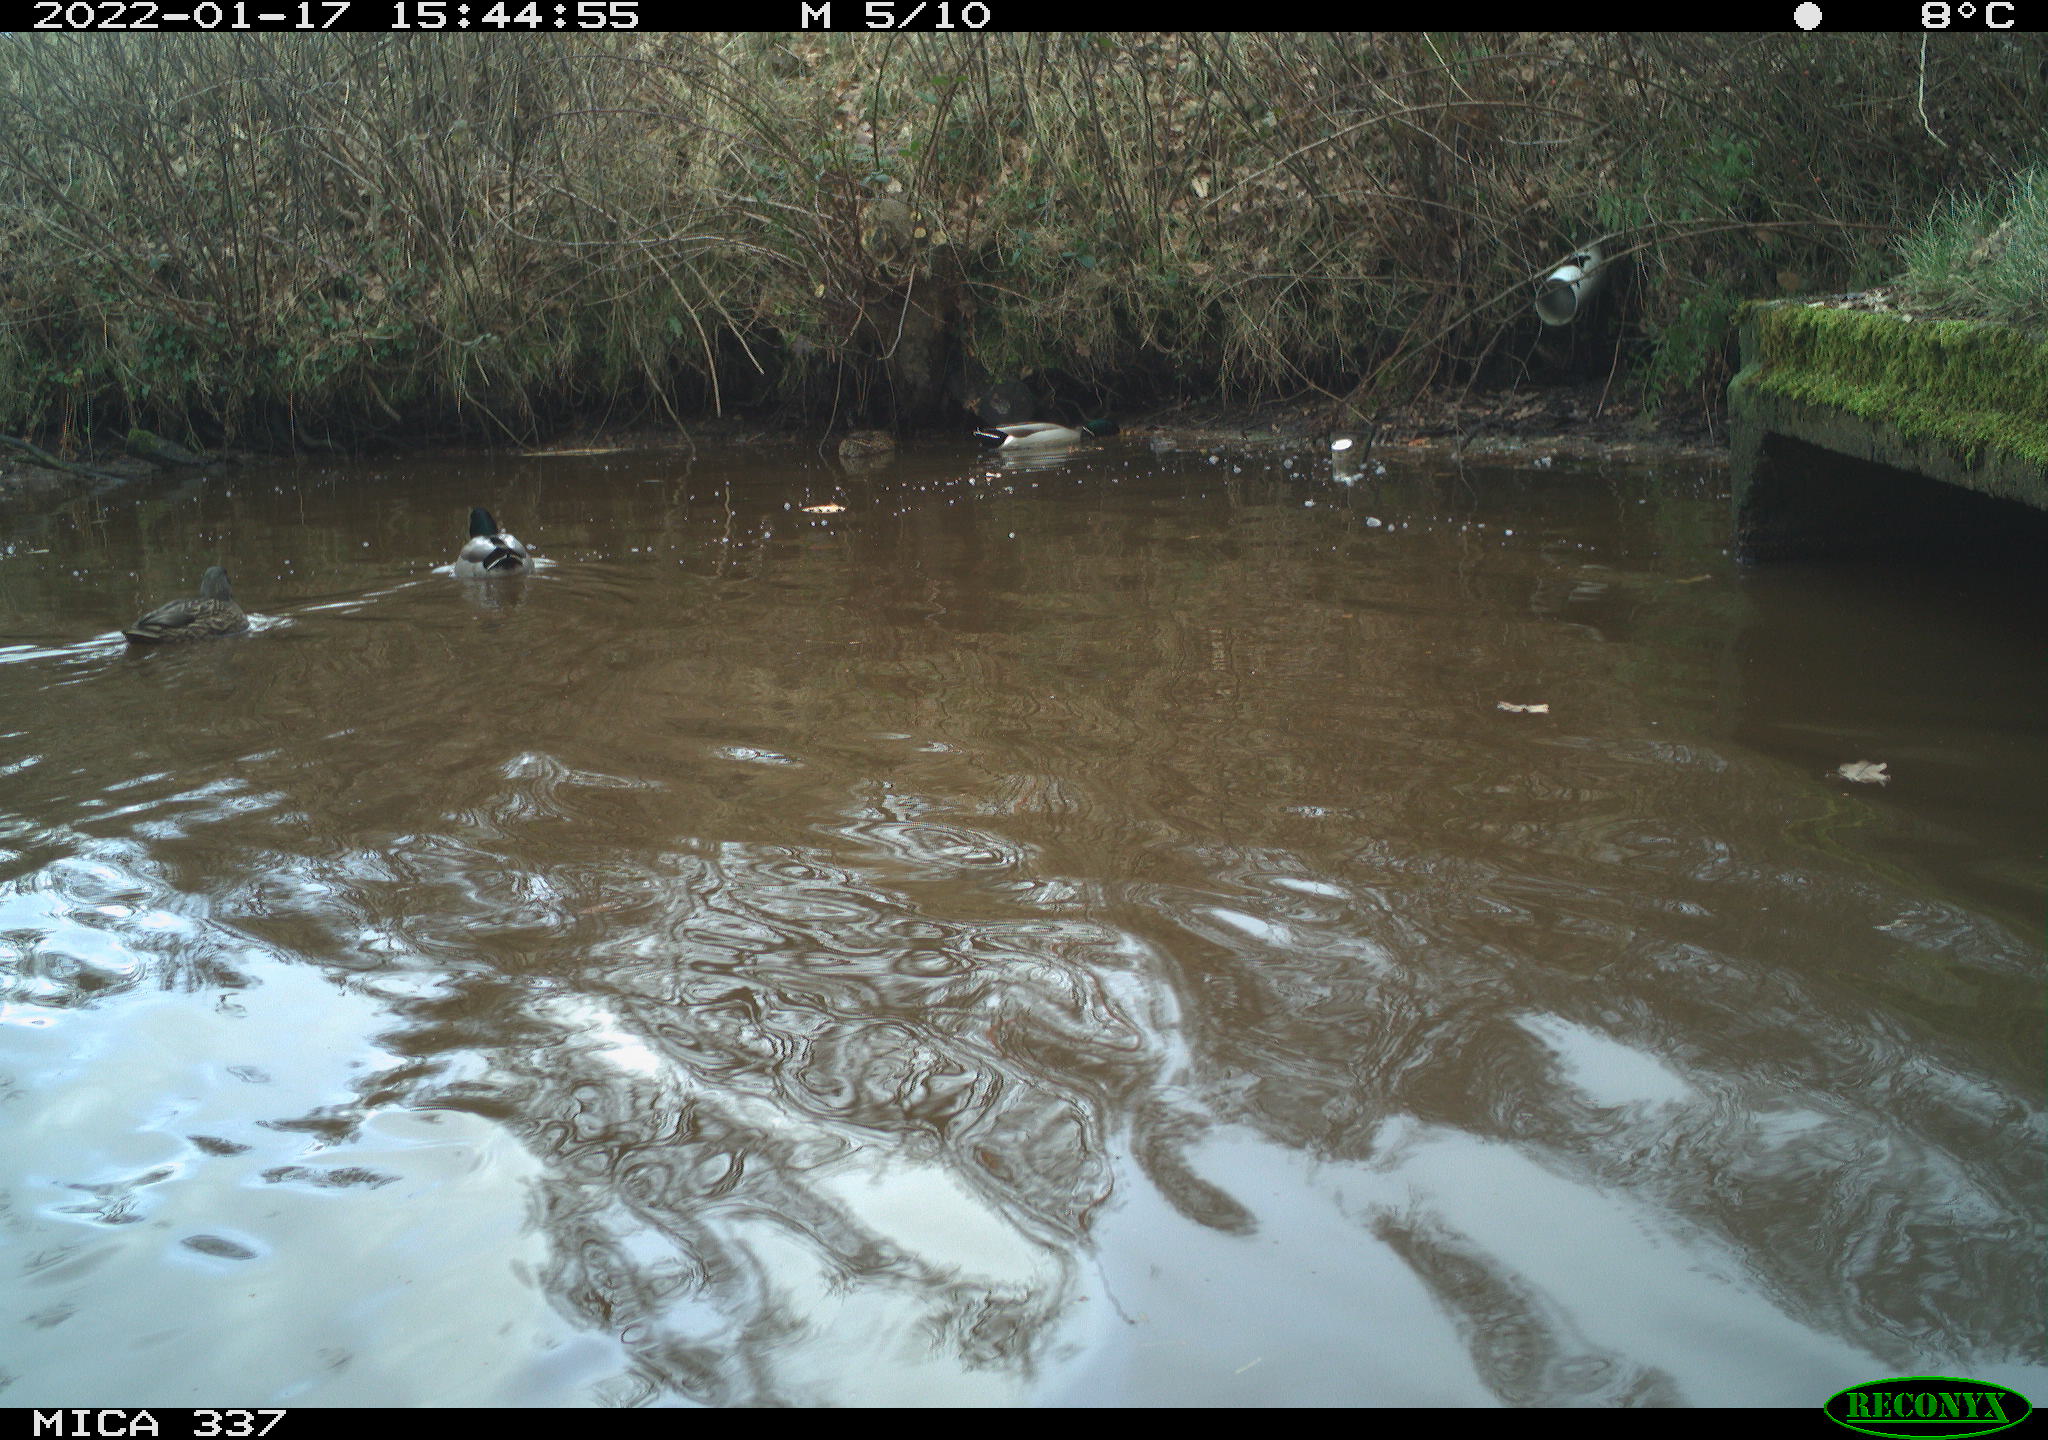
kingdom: Animalia
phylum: Chordata
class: Aves
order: Anseriformes
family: Anatidae
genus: Anas
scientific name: Anas platyrhynchos
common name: Mallard
